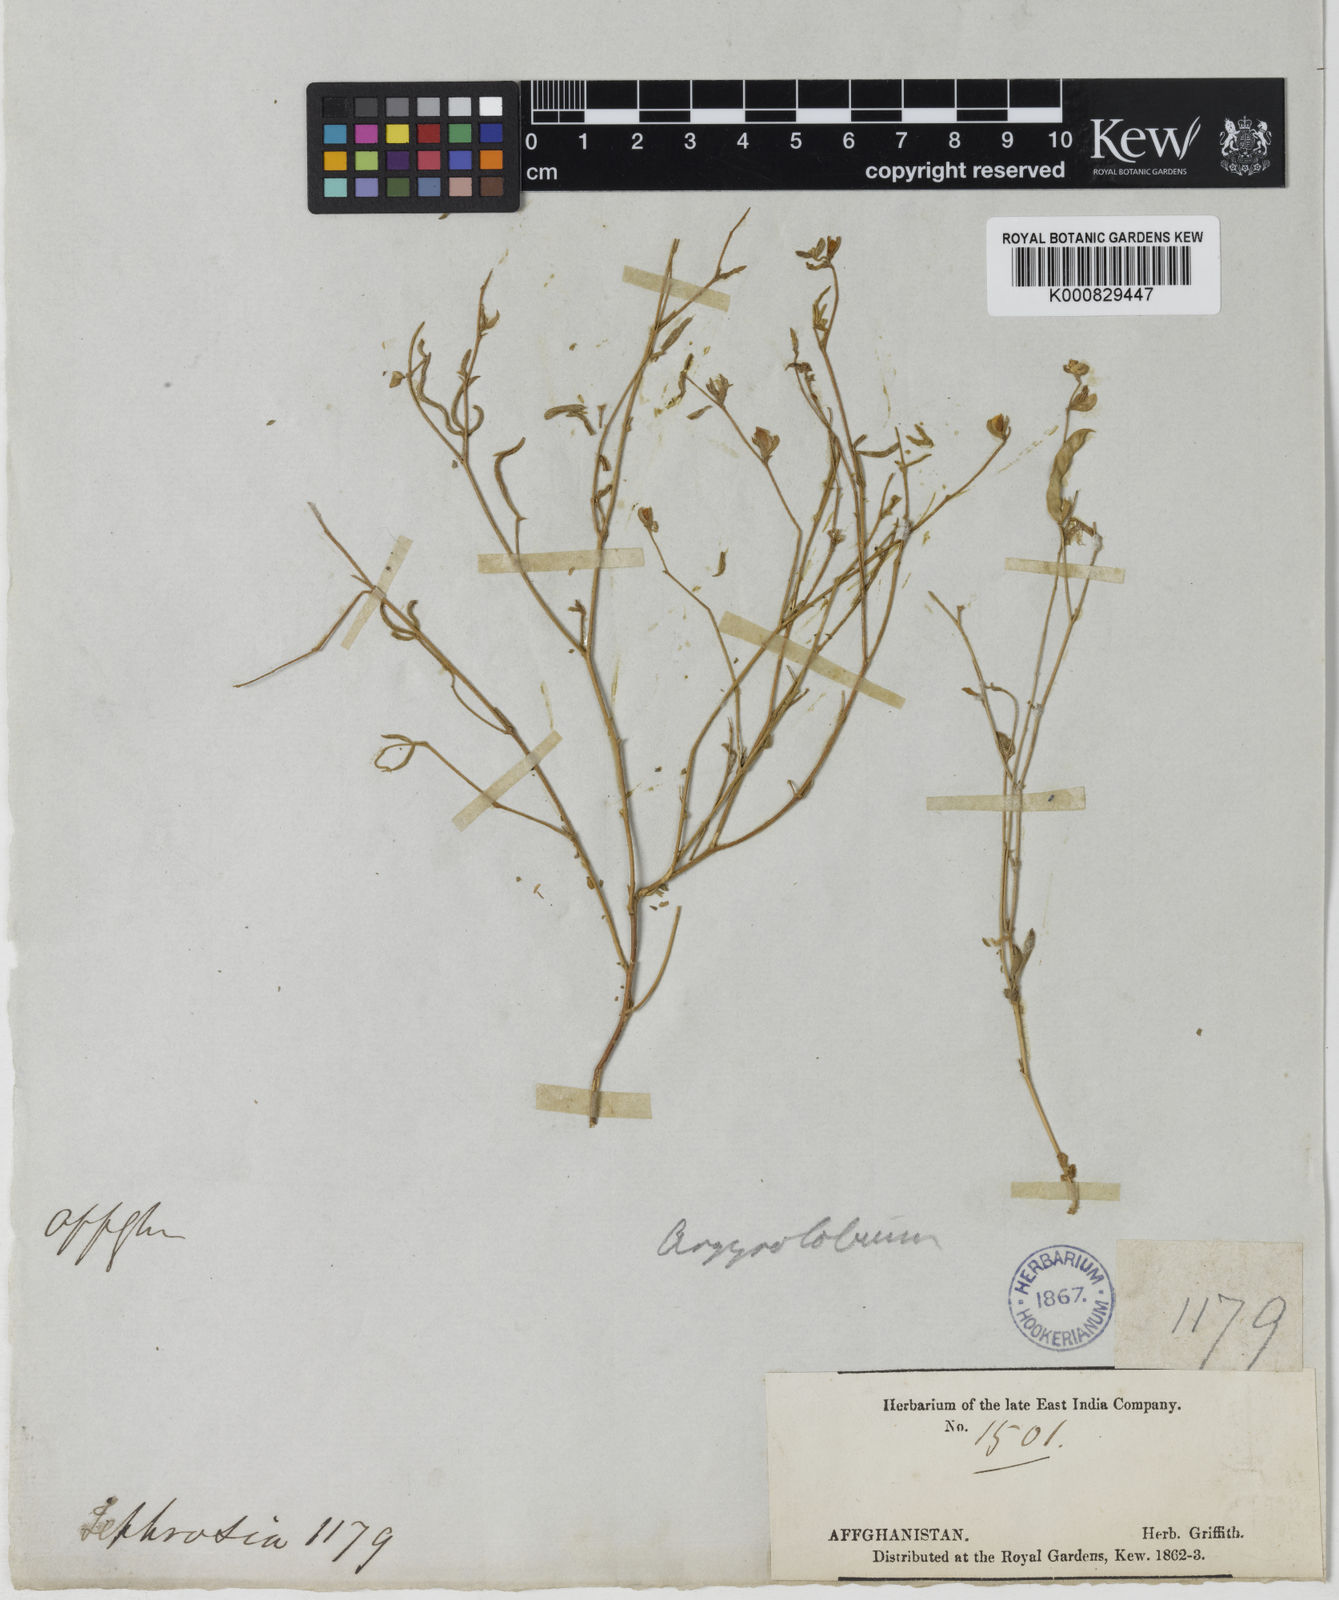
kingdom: Plantae
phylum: Tracheophyta
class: Magnoliopsida
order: Fabales
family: Fabaceae
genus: Argyrolobium
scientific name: Argyrolobium stenophyllum
